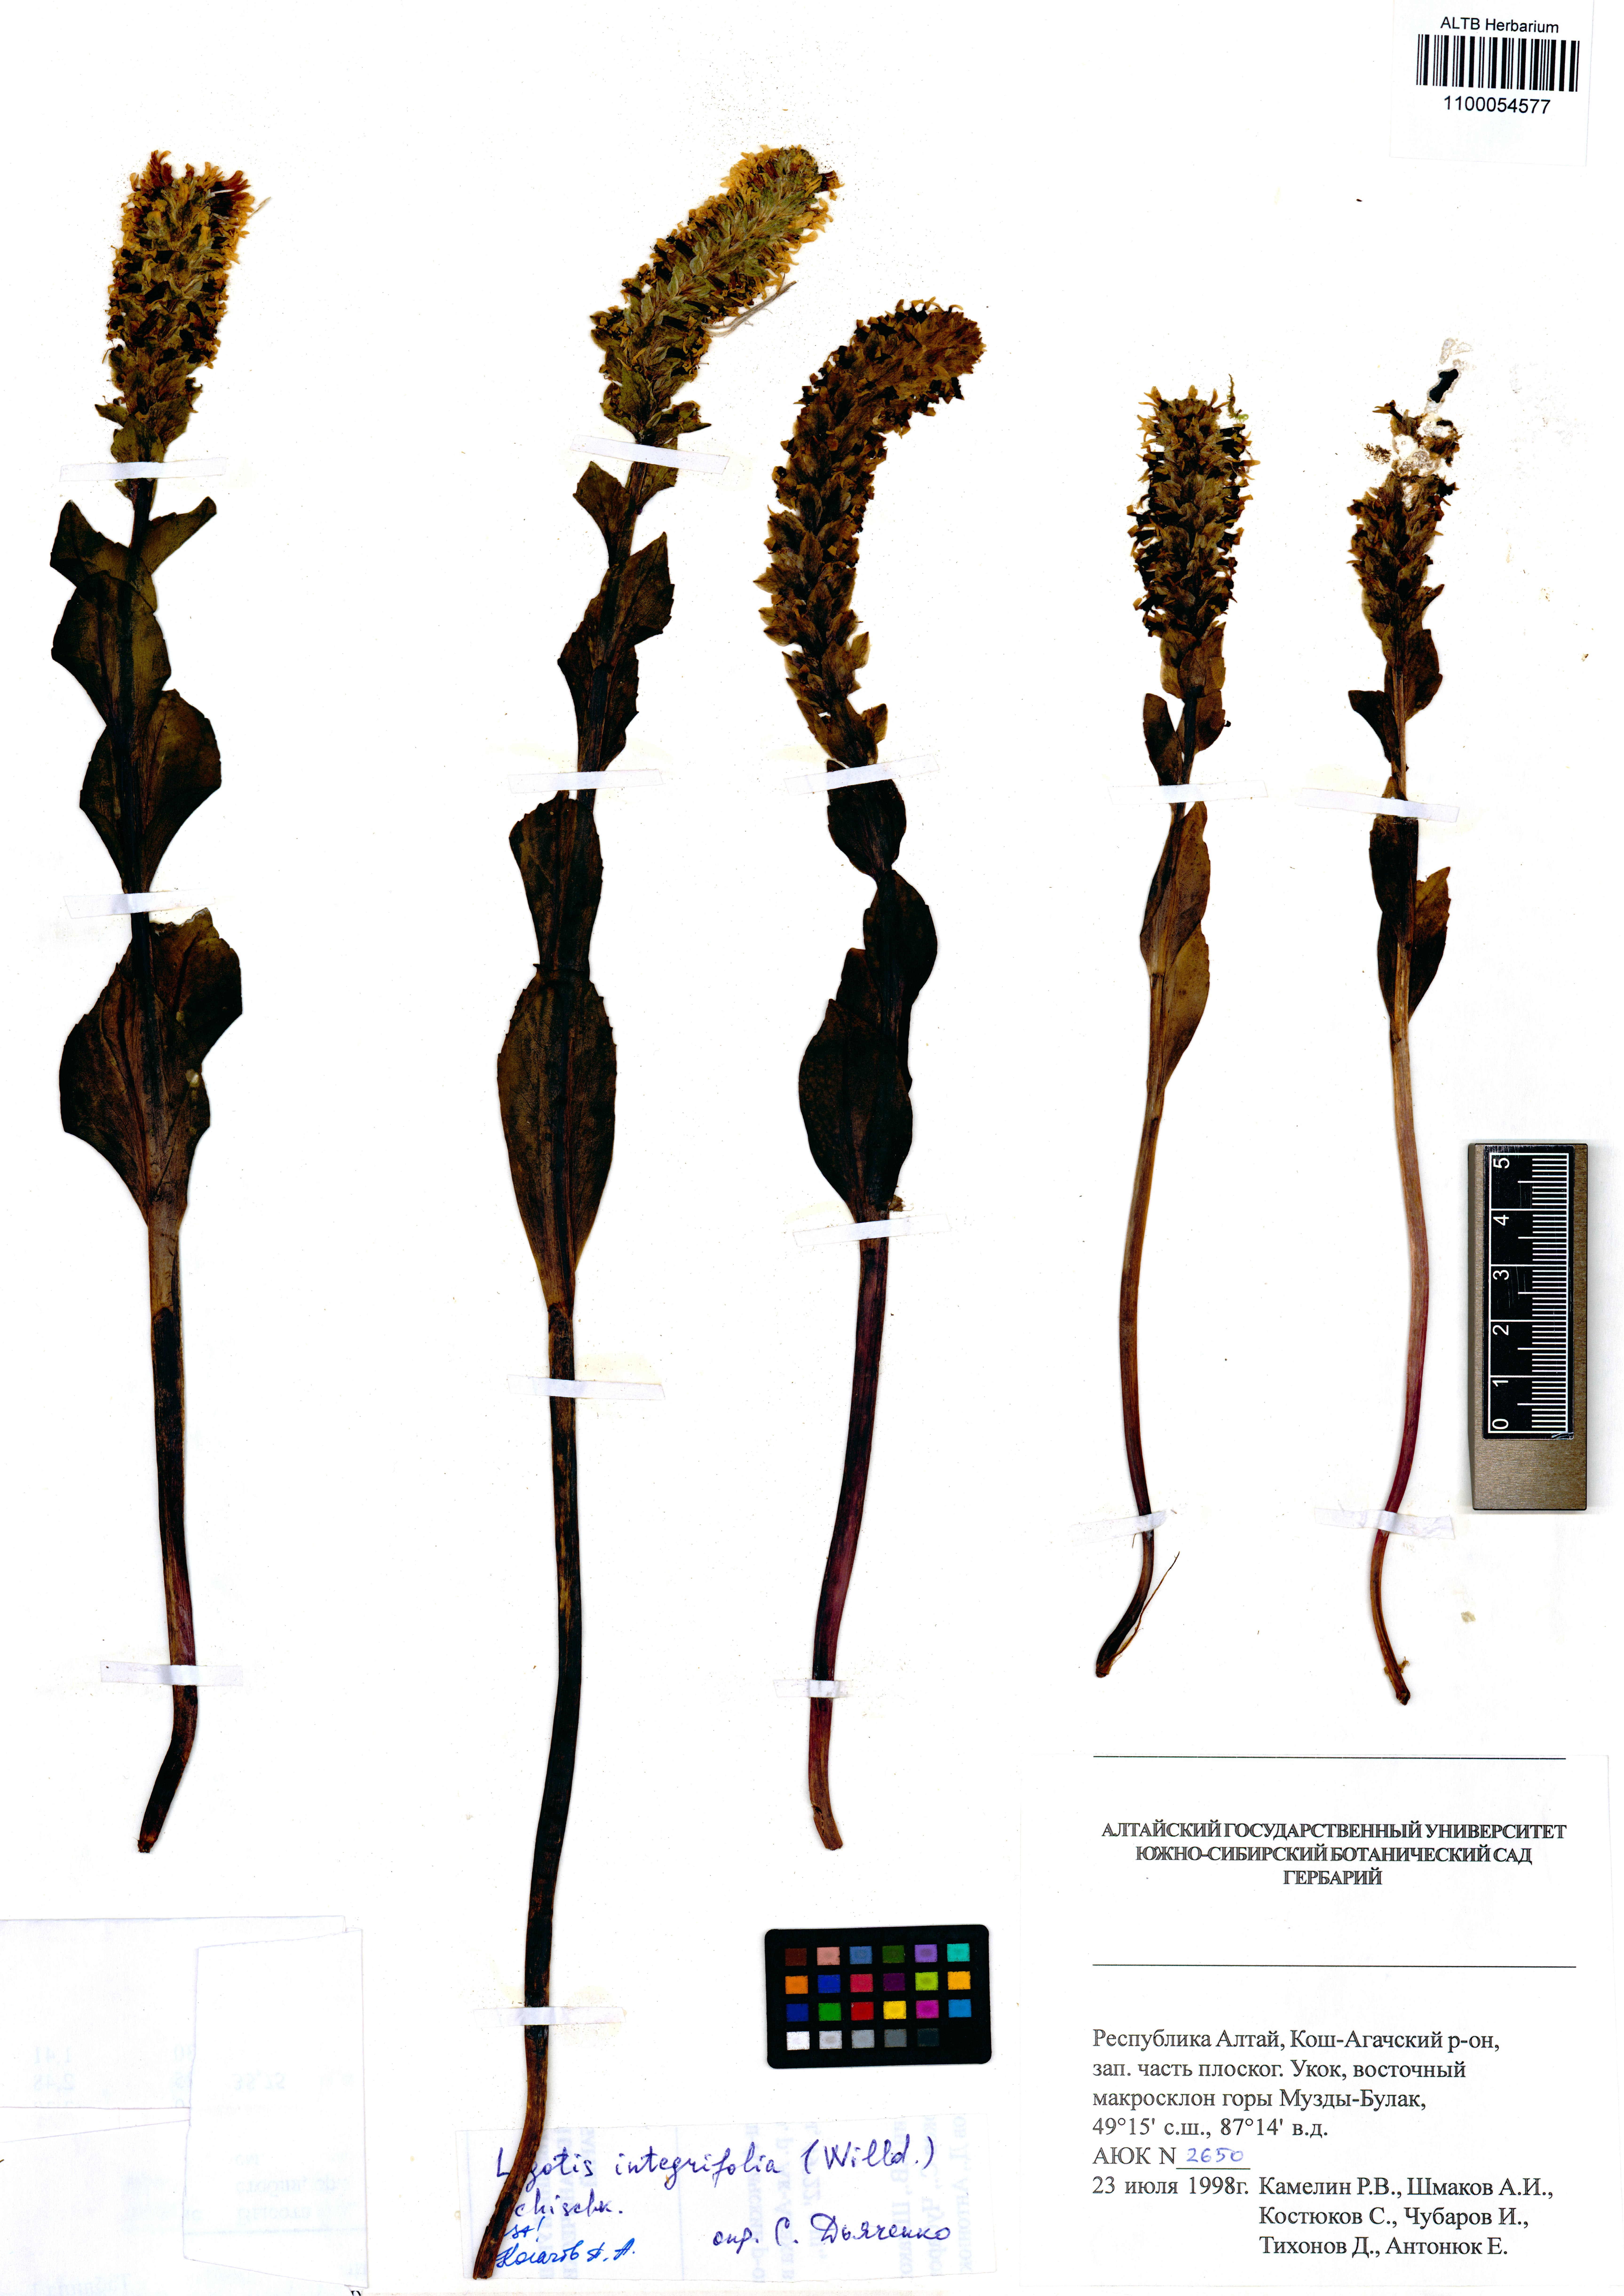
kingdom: Plantae
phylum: Tracheophyta
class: Magnoliopsida
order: Lamiales
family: Plantaginaceae
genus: Lagotis
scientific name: Lagotis integrifolia
